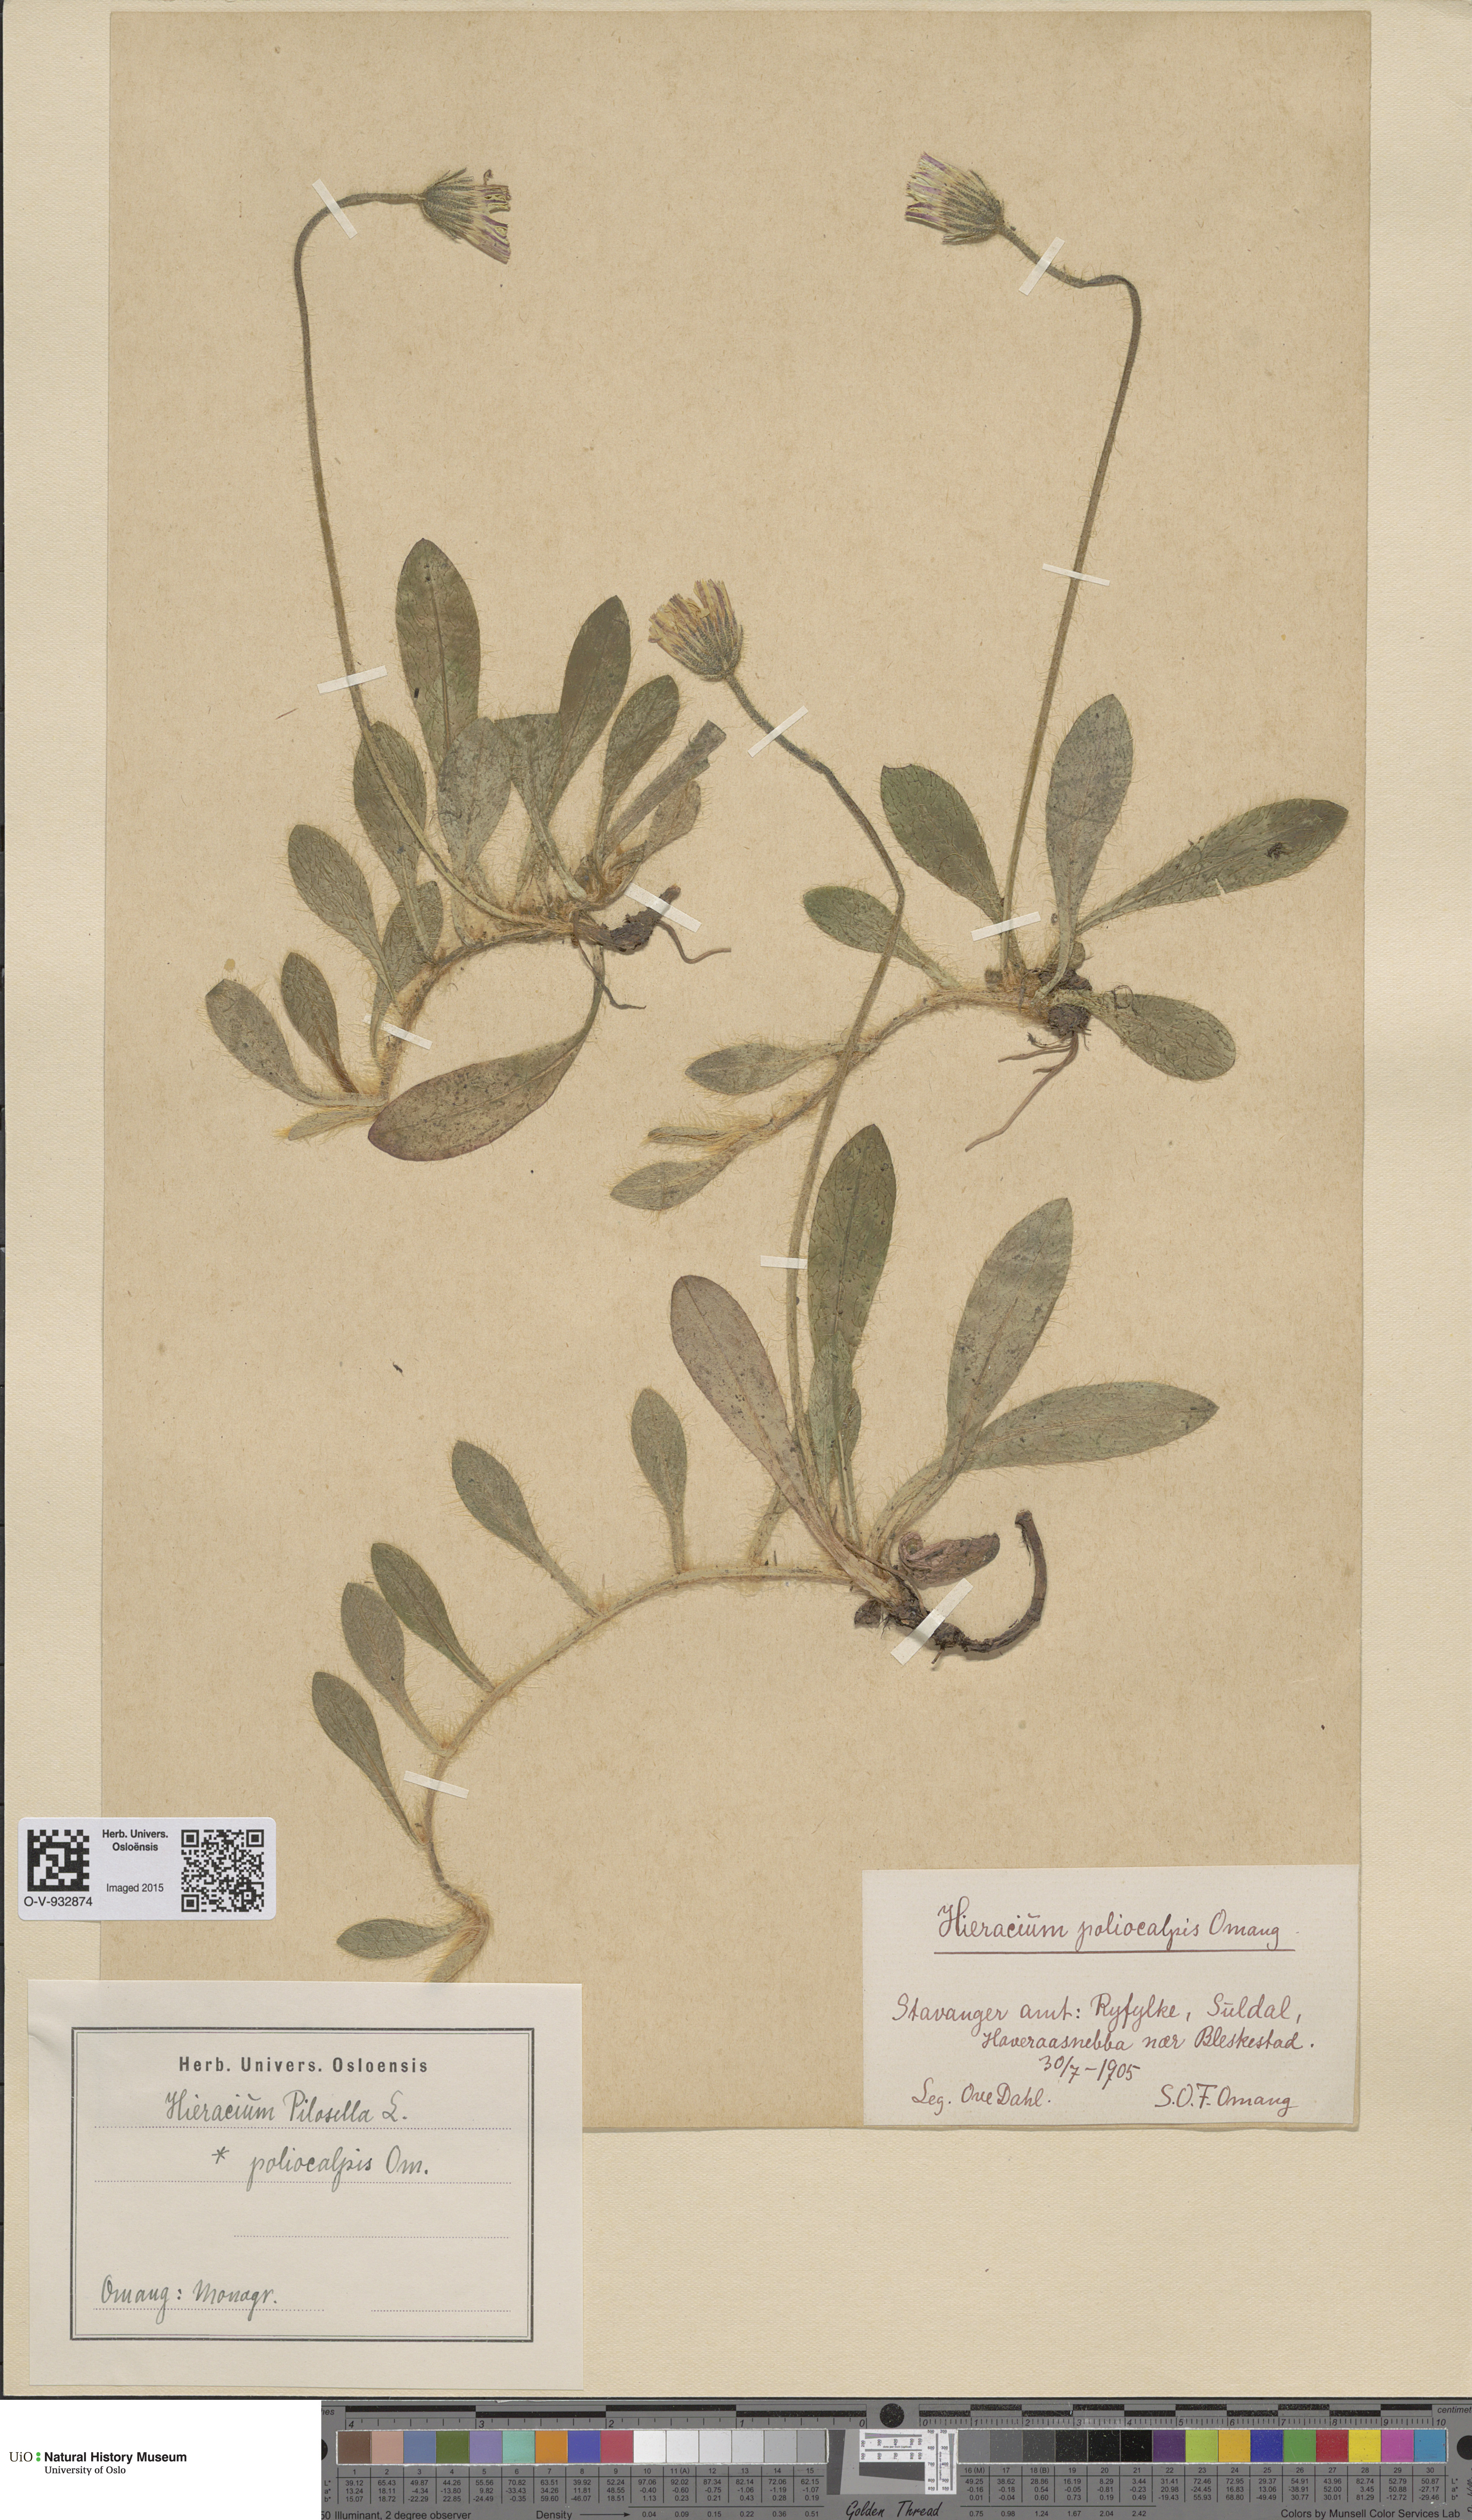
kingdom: Plantae
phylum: Tracheophyta
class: Magnoliopsida
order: Asterales
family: Asteraceae
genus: Pilosella
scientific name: Pilosella officinarum
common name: Mouse-ear hawkweed
